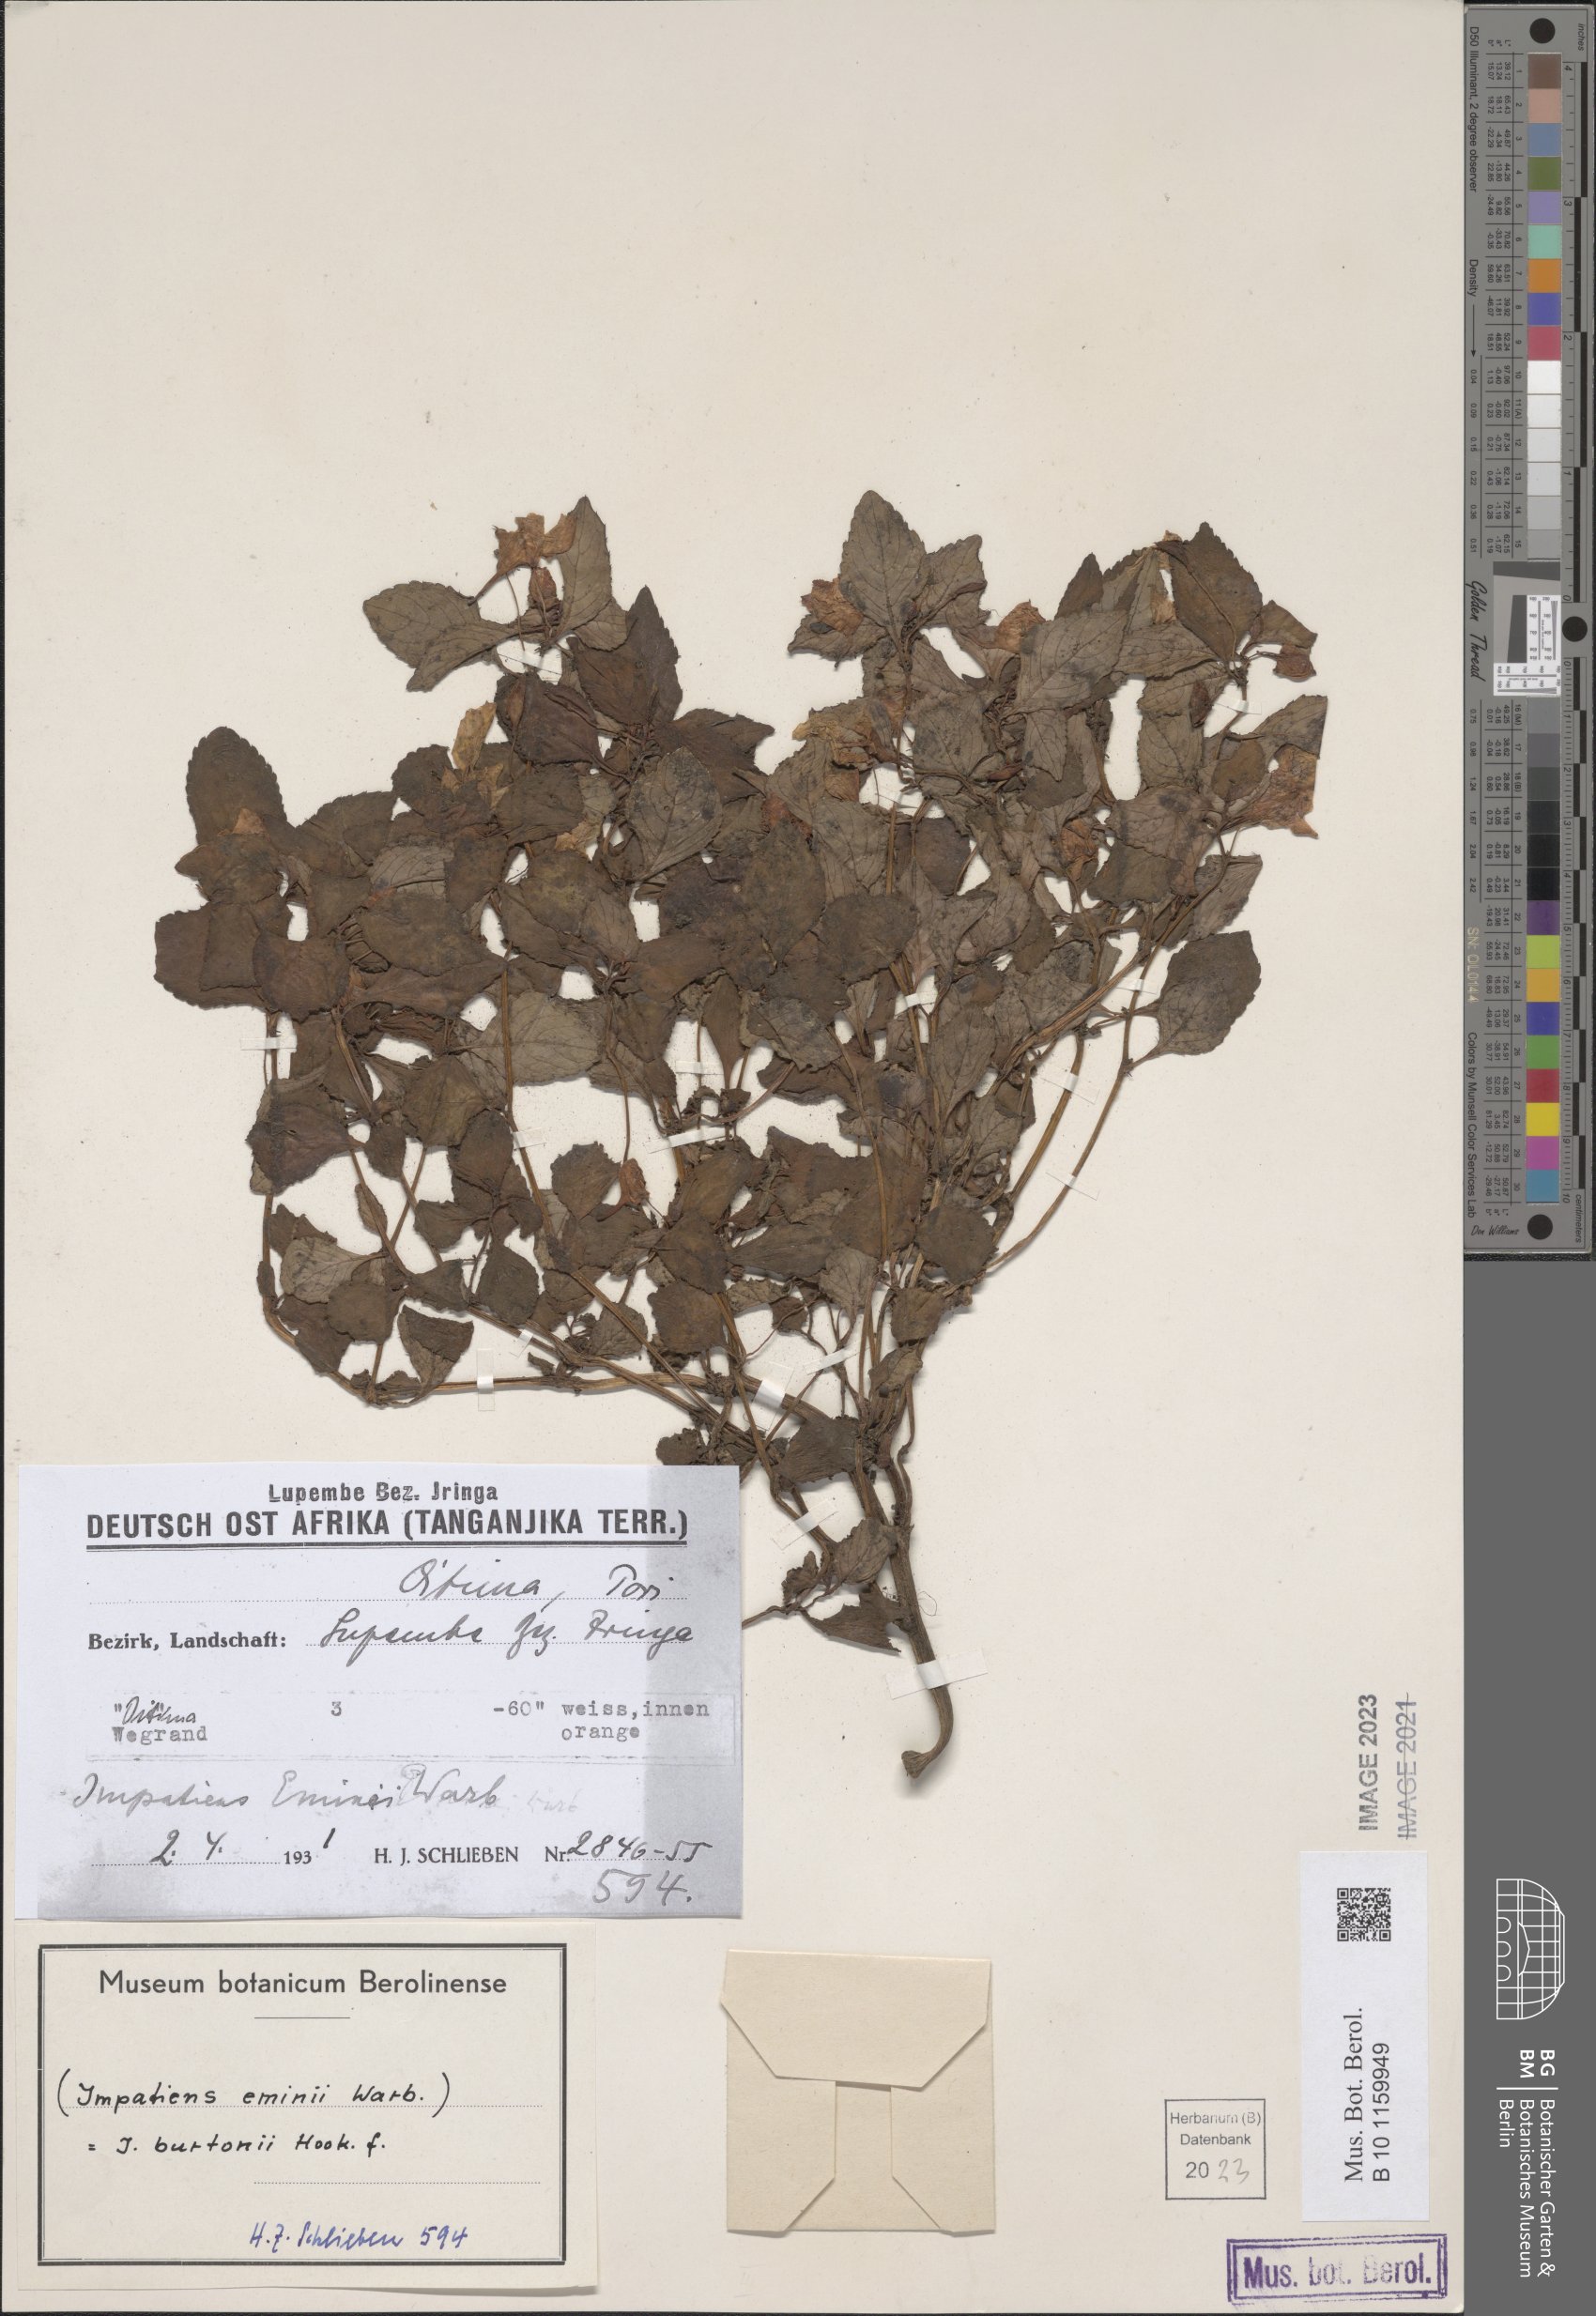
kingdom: Plantae
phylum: Tracheophyta
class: Magnoliopsida
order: Ericales
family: Balsaminaceae
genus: Impatiens
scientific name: Impatiens burtonii
